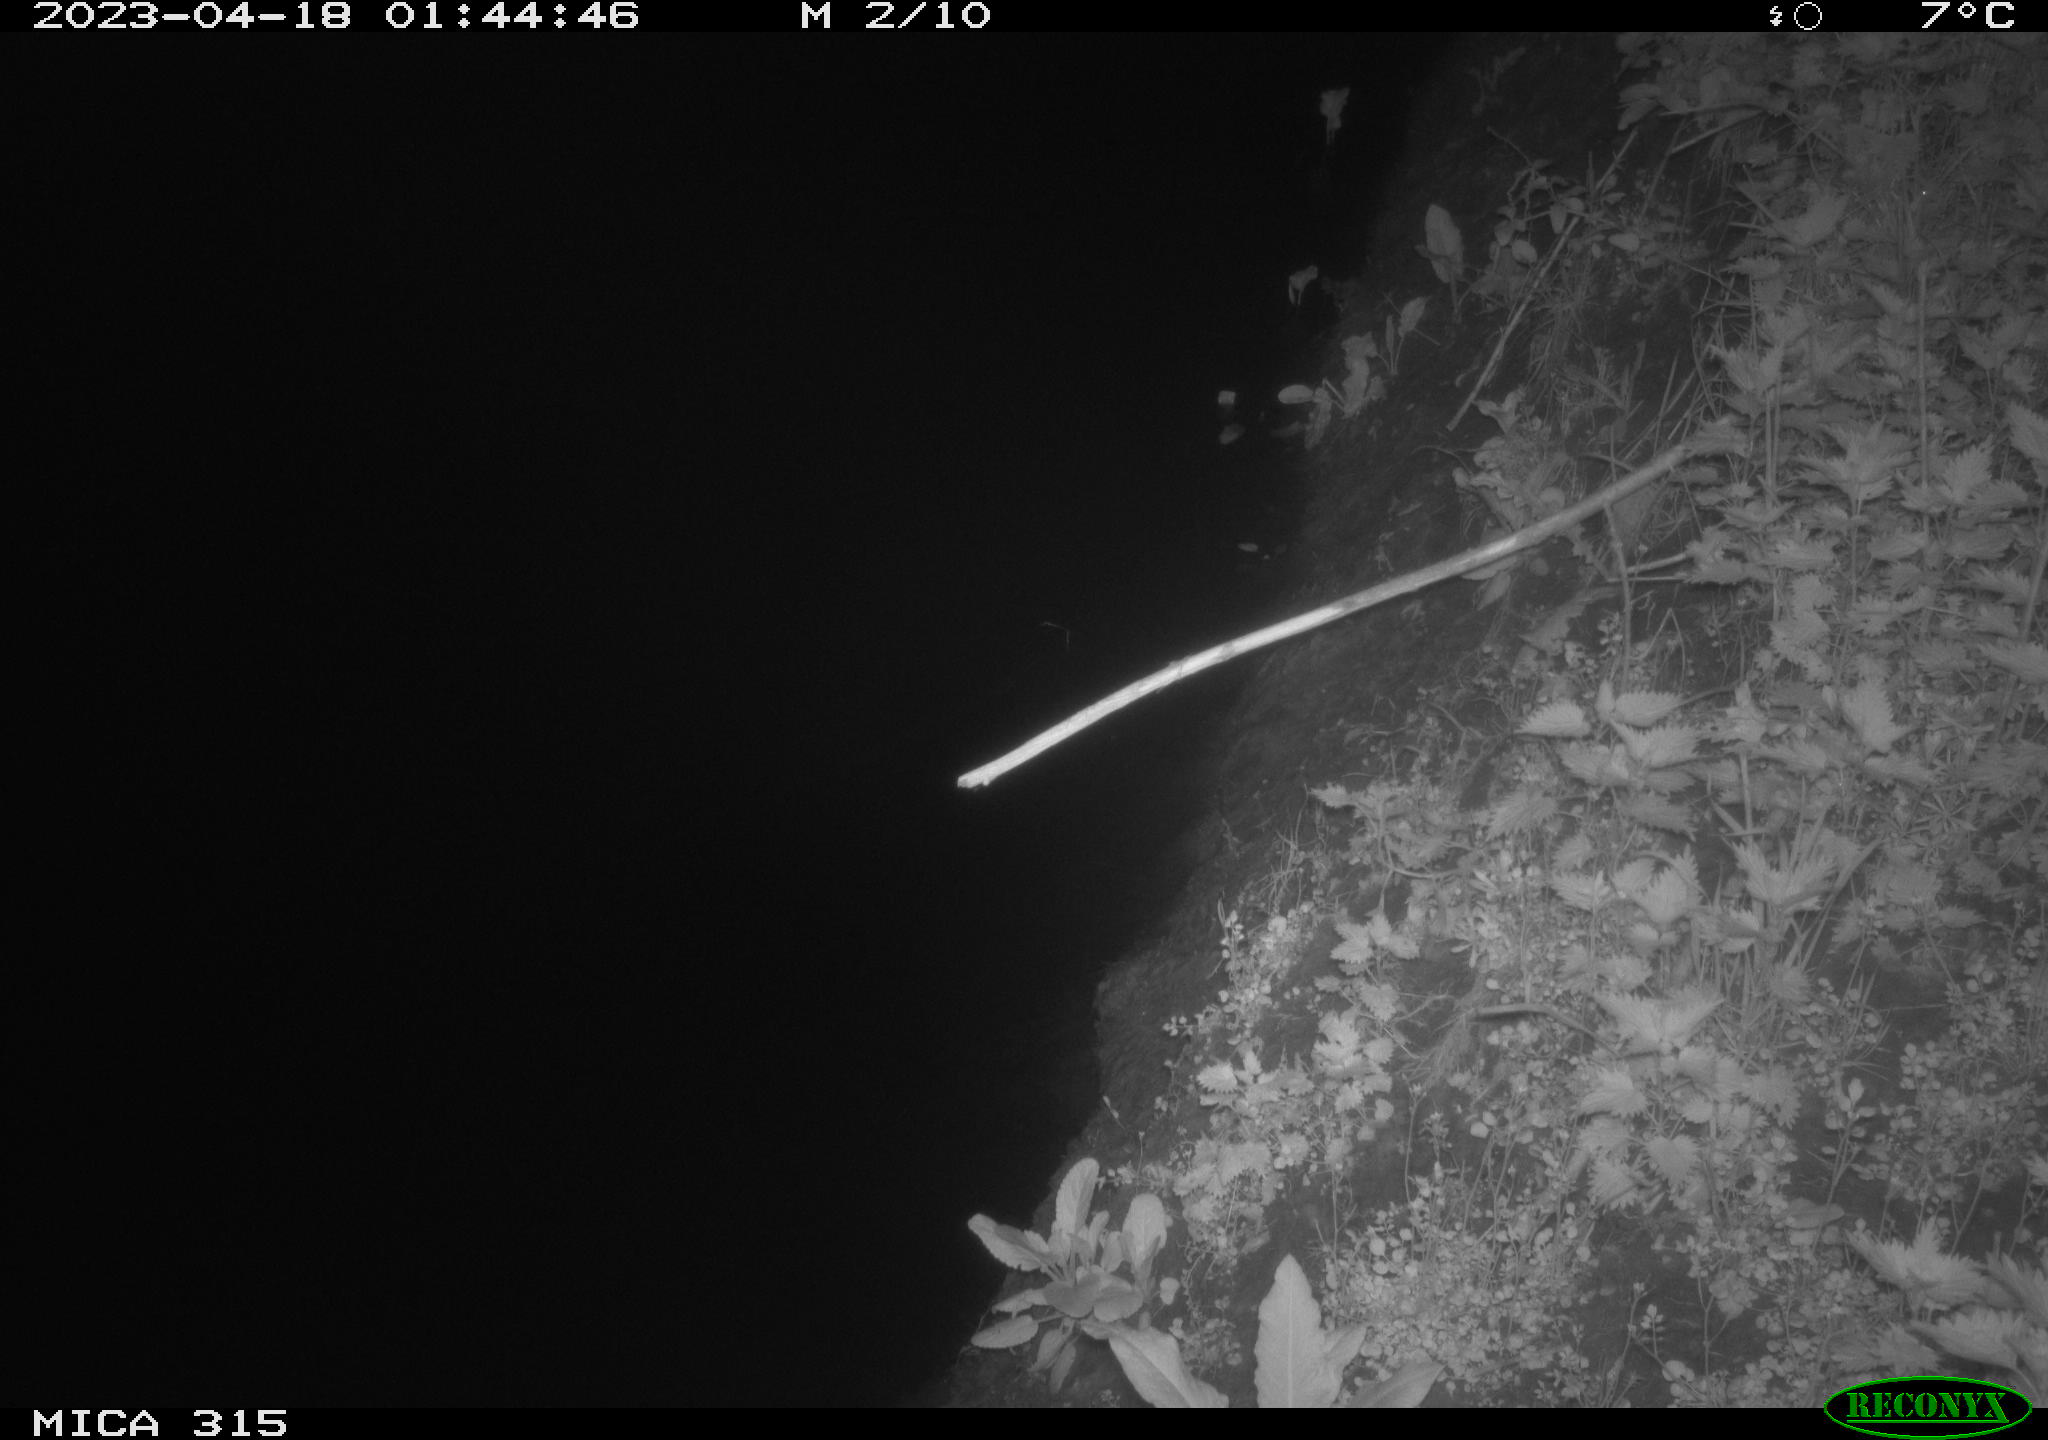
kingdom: Animalia
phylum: Chordata
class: Aves
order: Anseriformes
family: Anatidae
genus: Anas
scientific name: Anas
